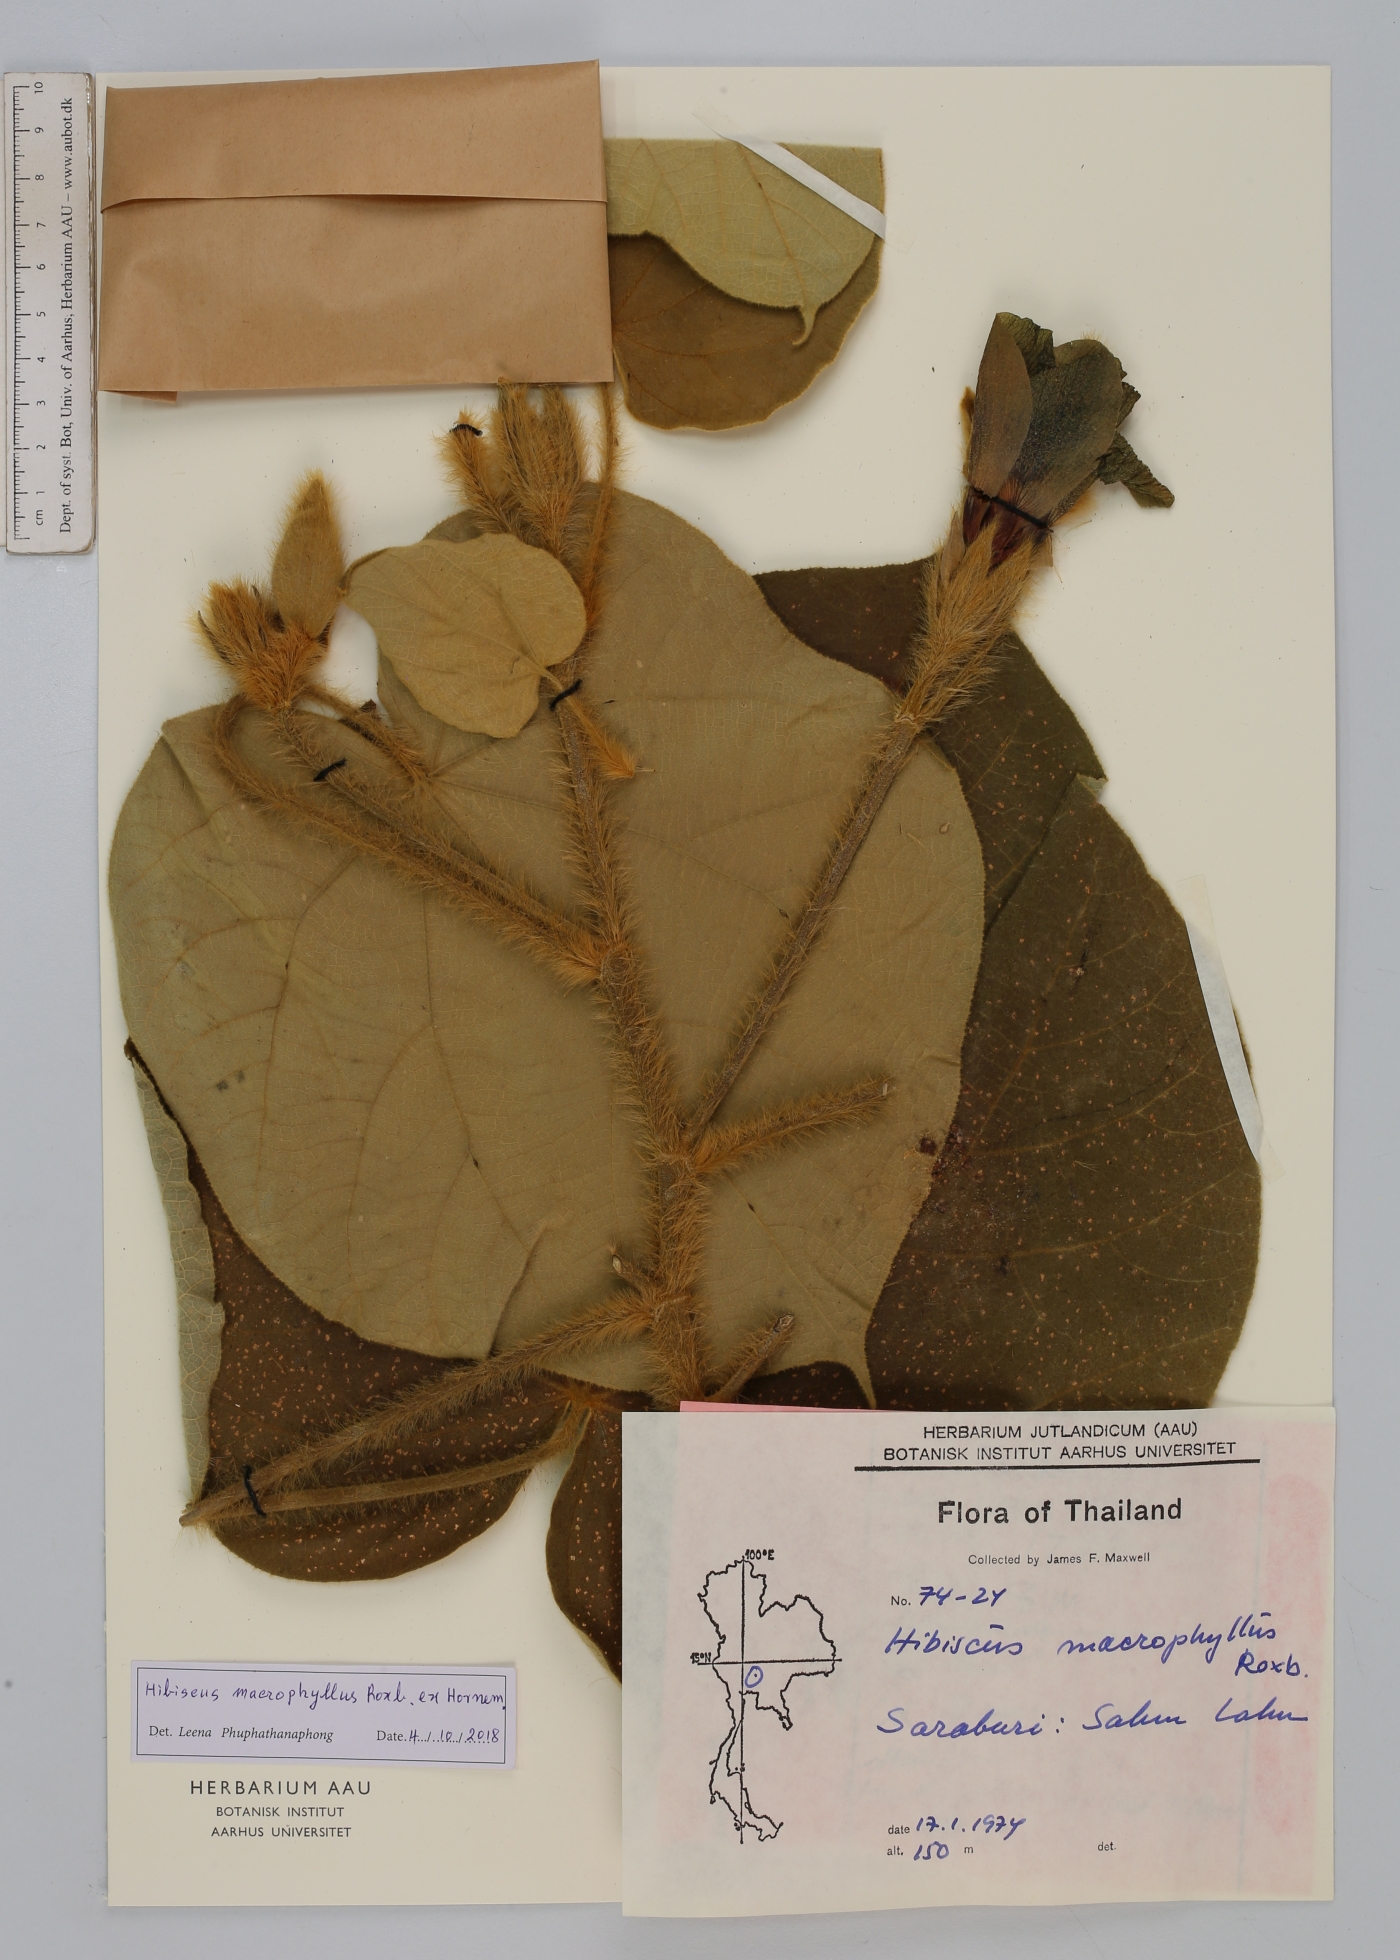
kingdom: Plantae
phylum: Tracheophyta
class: Magnoliopsida
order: Malvales
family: Malvaceae
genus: Talipariti
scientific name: Talipariti macrophyllum
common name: Largeleaf rosemallow
